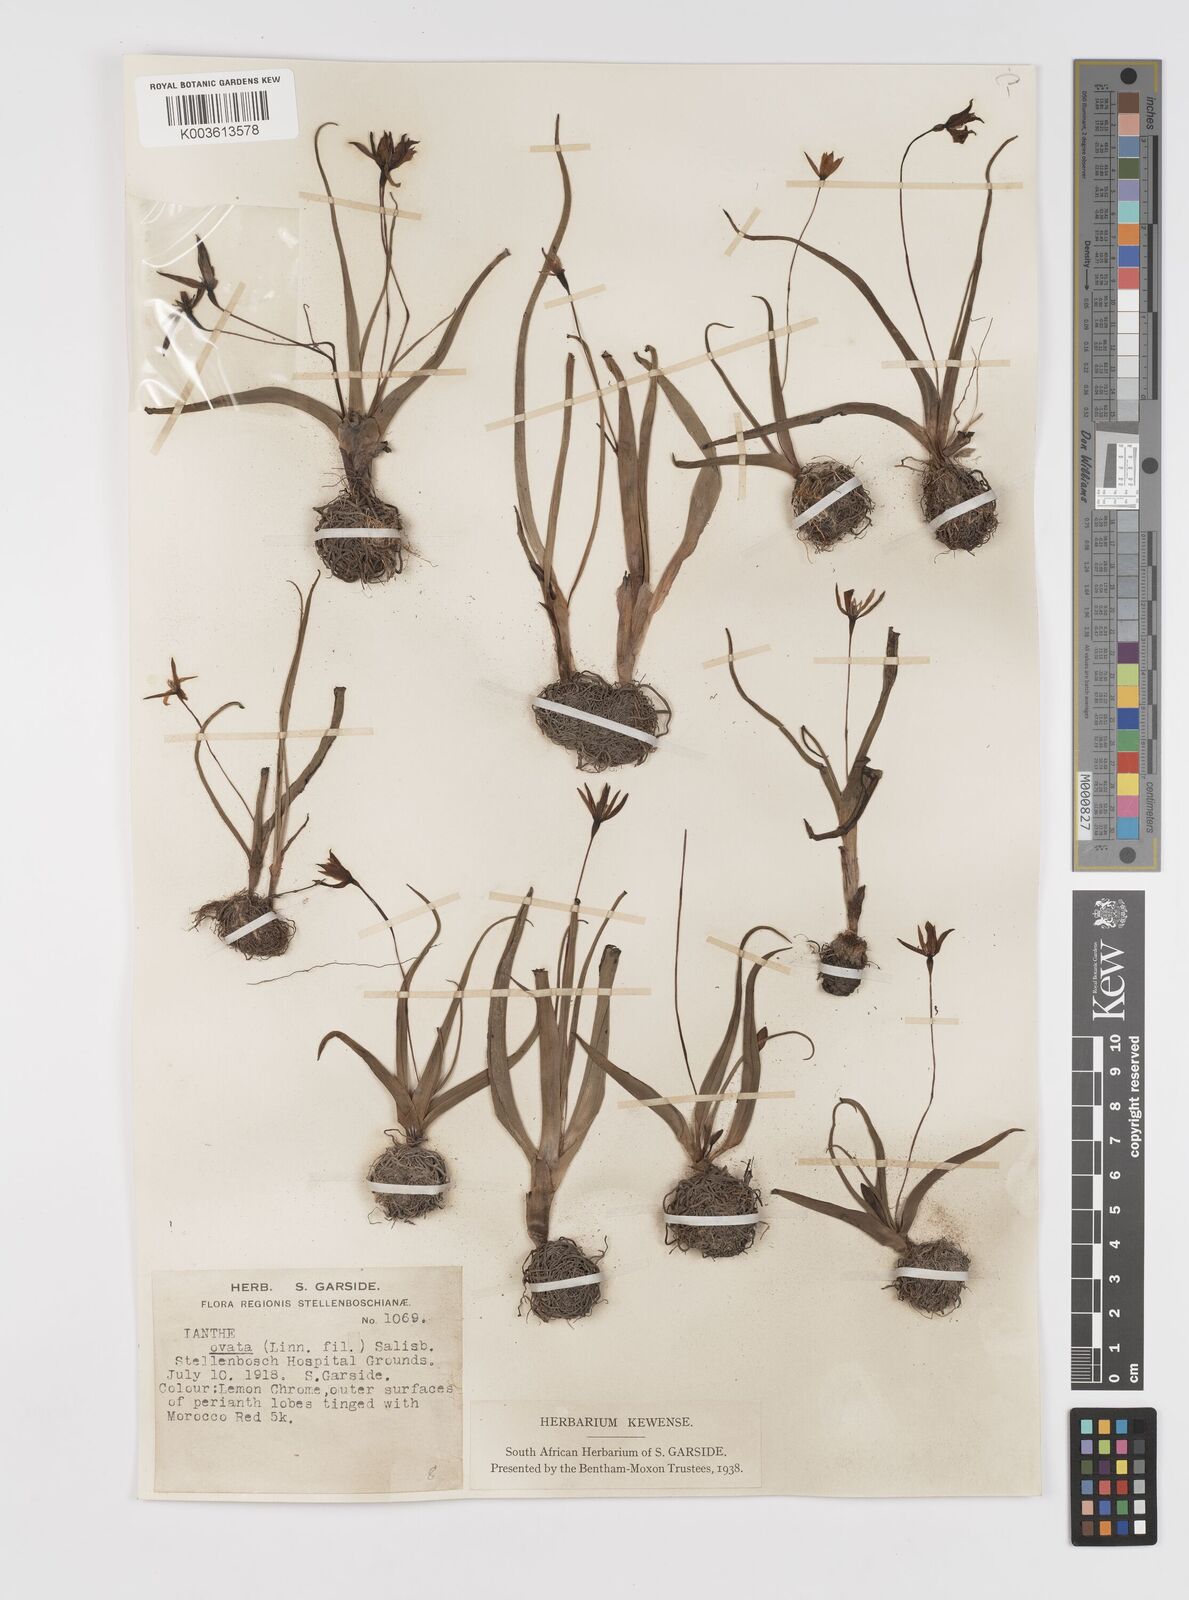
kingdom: Plantae
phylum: Tracheophyta
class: Liliopsida
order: Asparagales
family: Hypoxidaceae
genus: Pauridia
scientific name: Pauridia ovata
